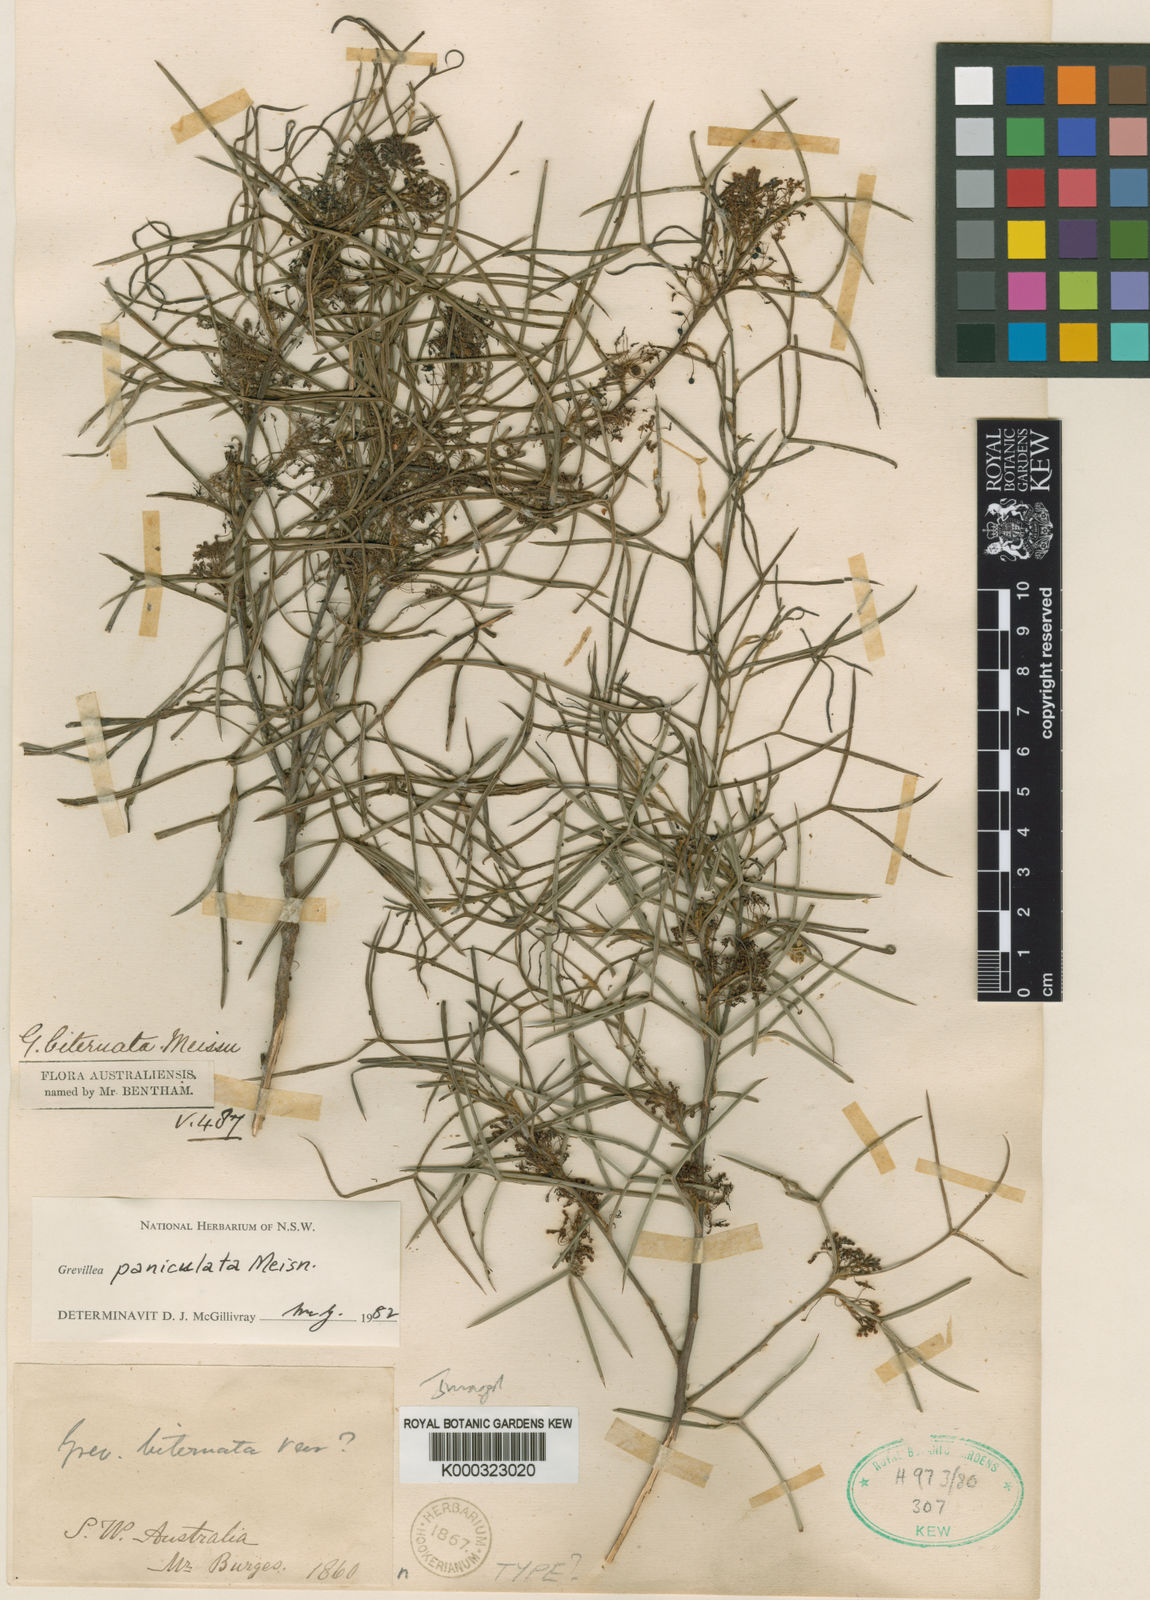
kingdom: Plantae
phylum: Tracheophyta
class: Magnoliopsida
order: Proteales
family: Proteaceae
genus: Grevillea
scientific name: Grevillea biternata
